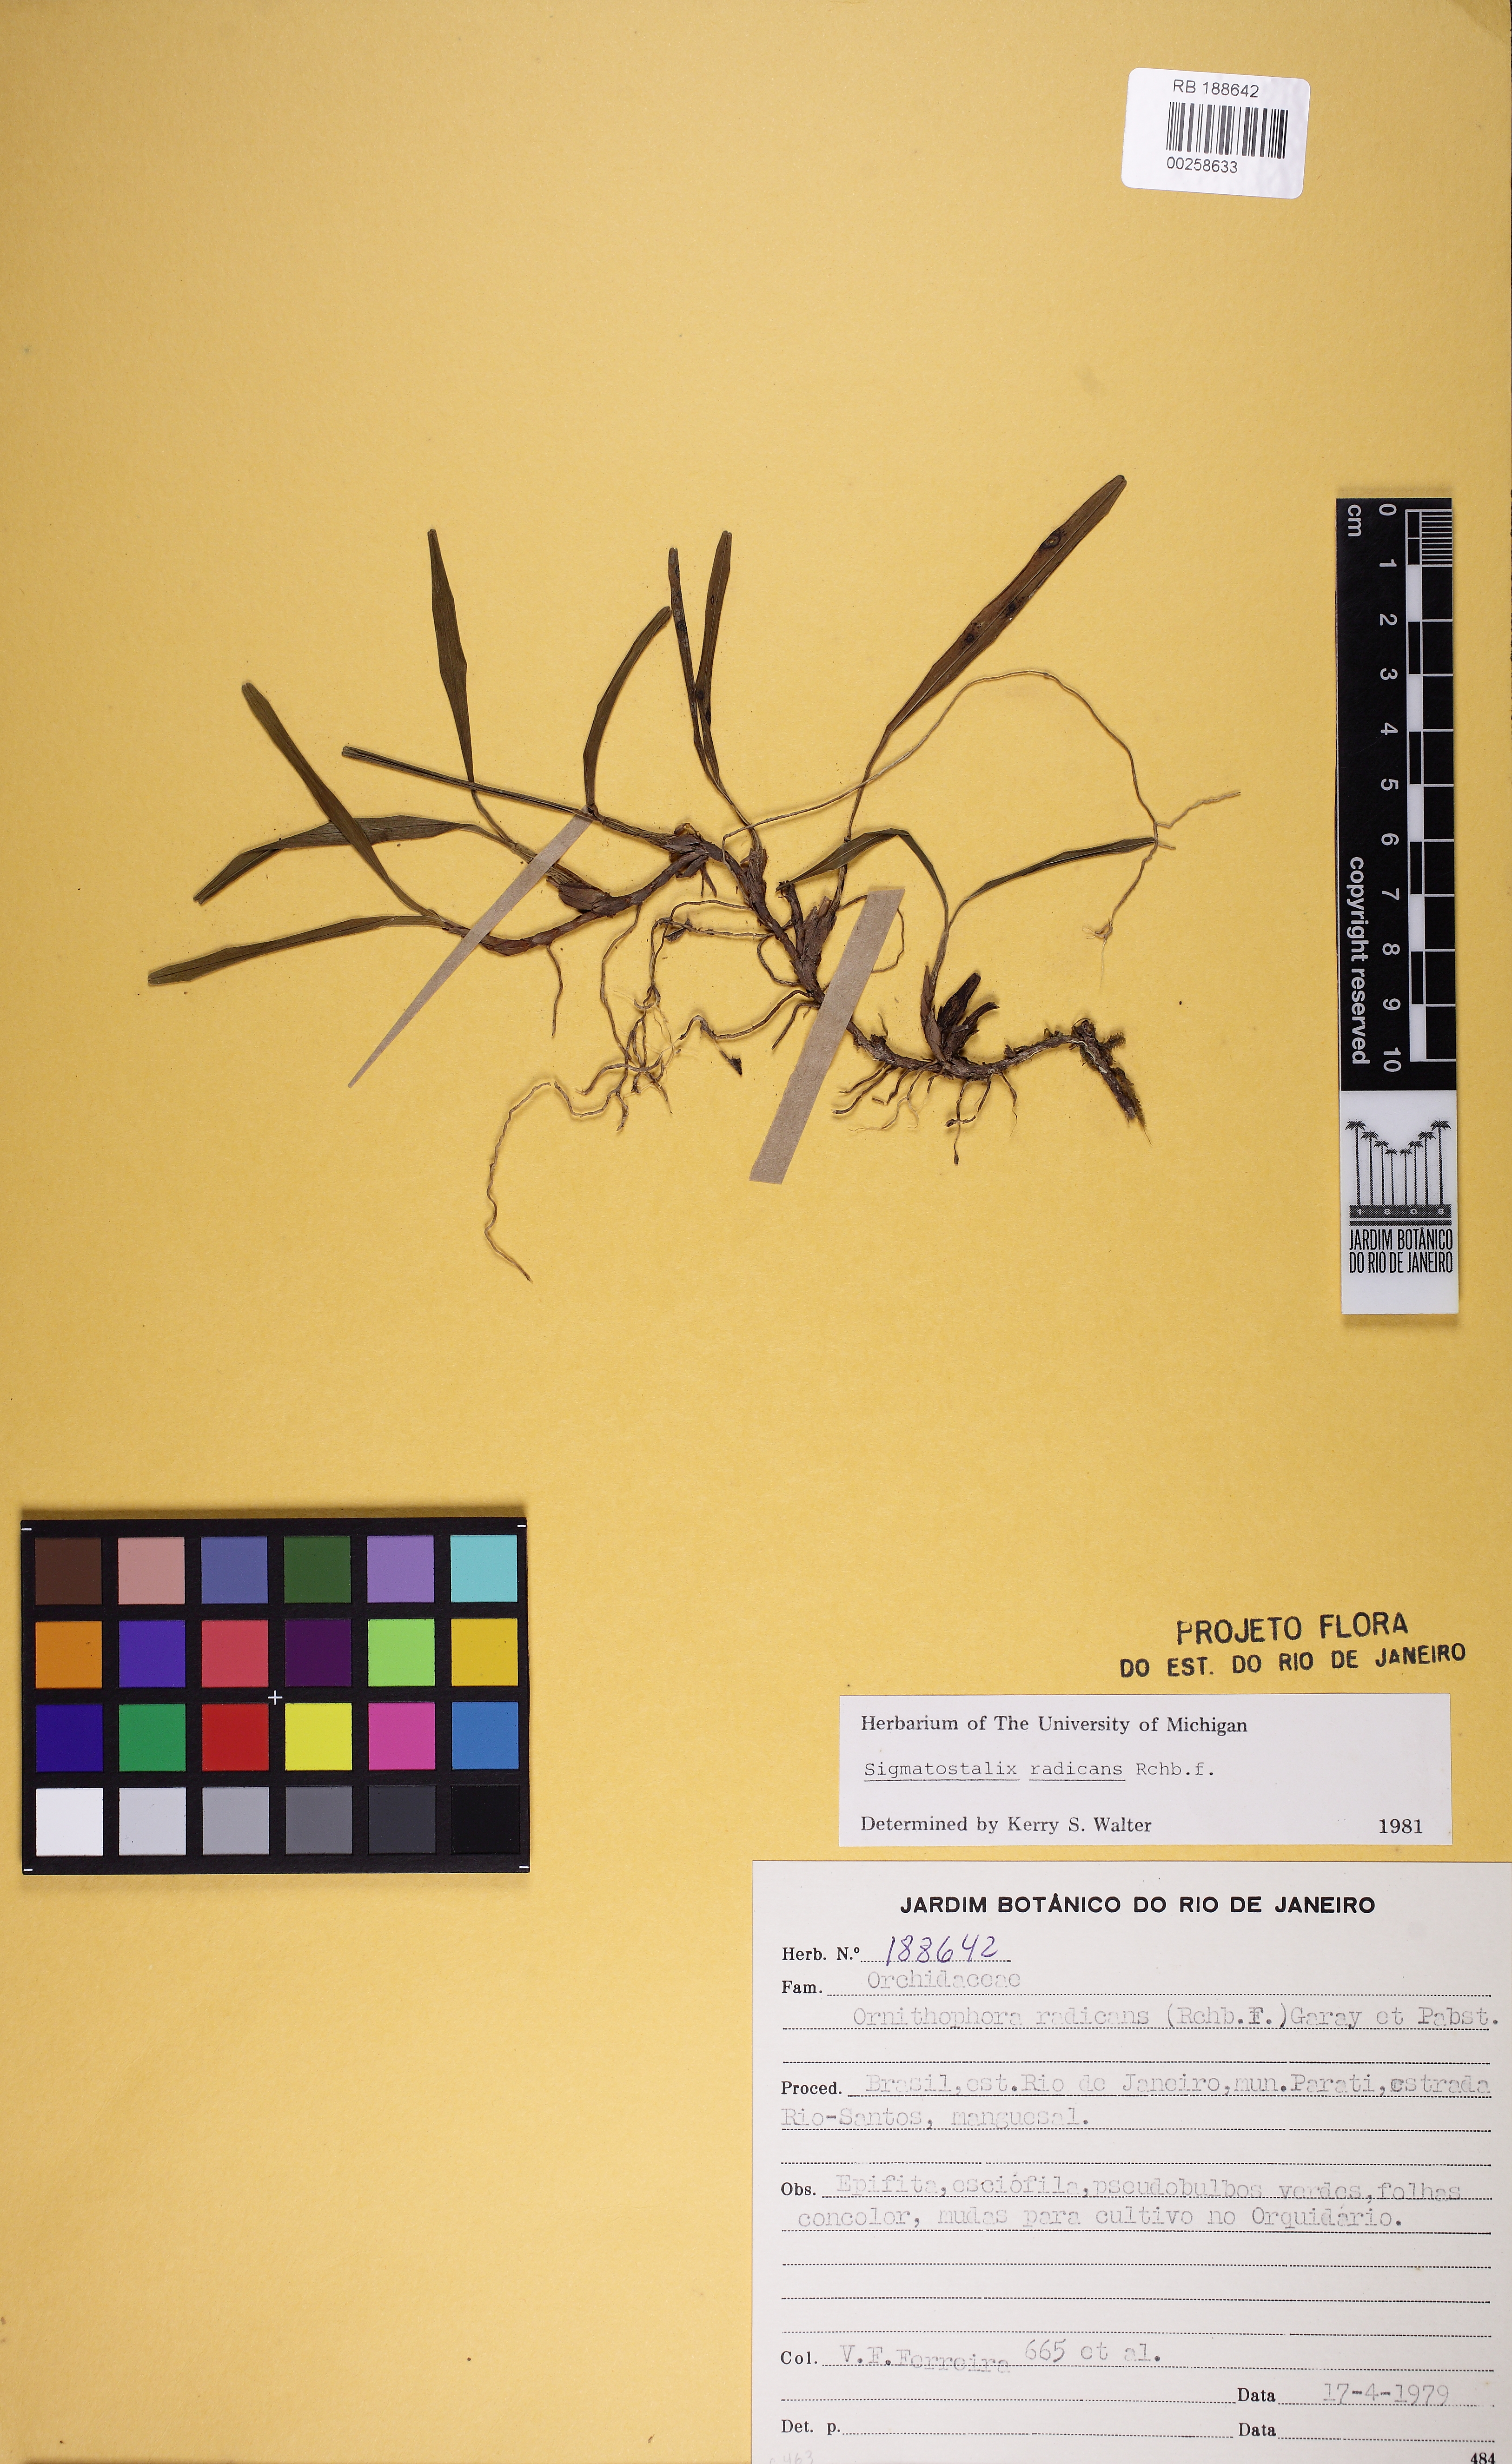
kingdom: Plantae
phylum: Tracheophyta
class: Liliopsida
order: Asparagales
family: Orchidaceae
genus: Gomesa
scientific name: Gomesa radicans
